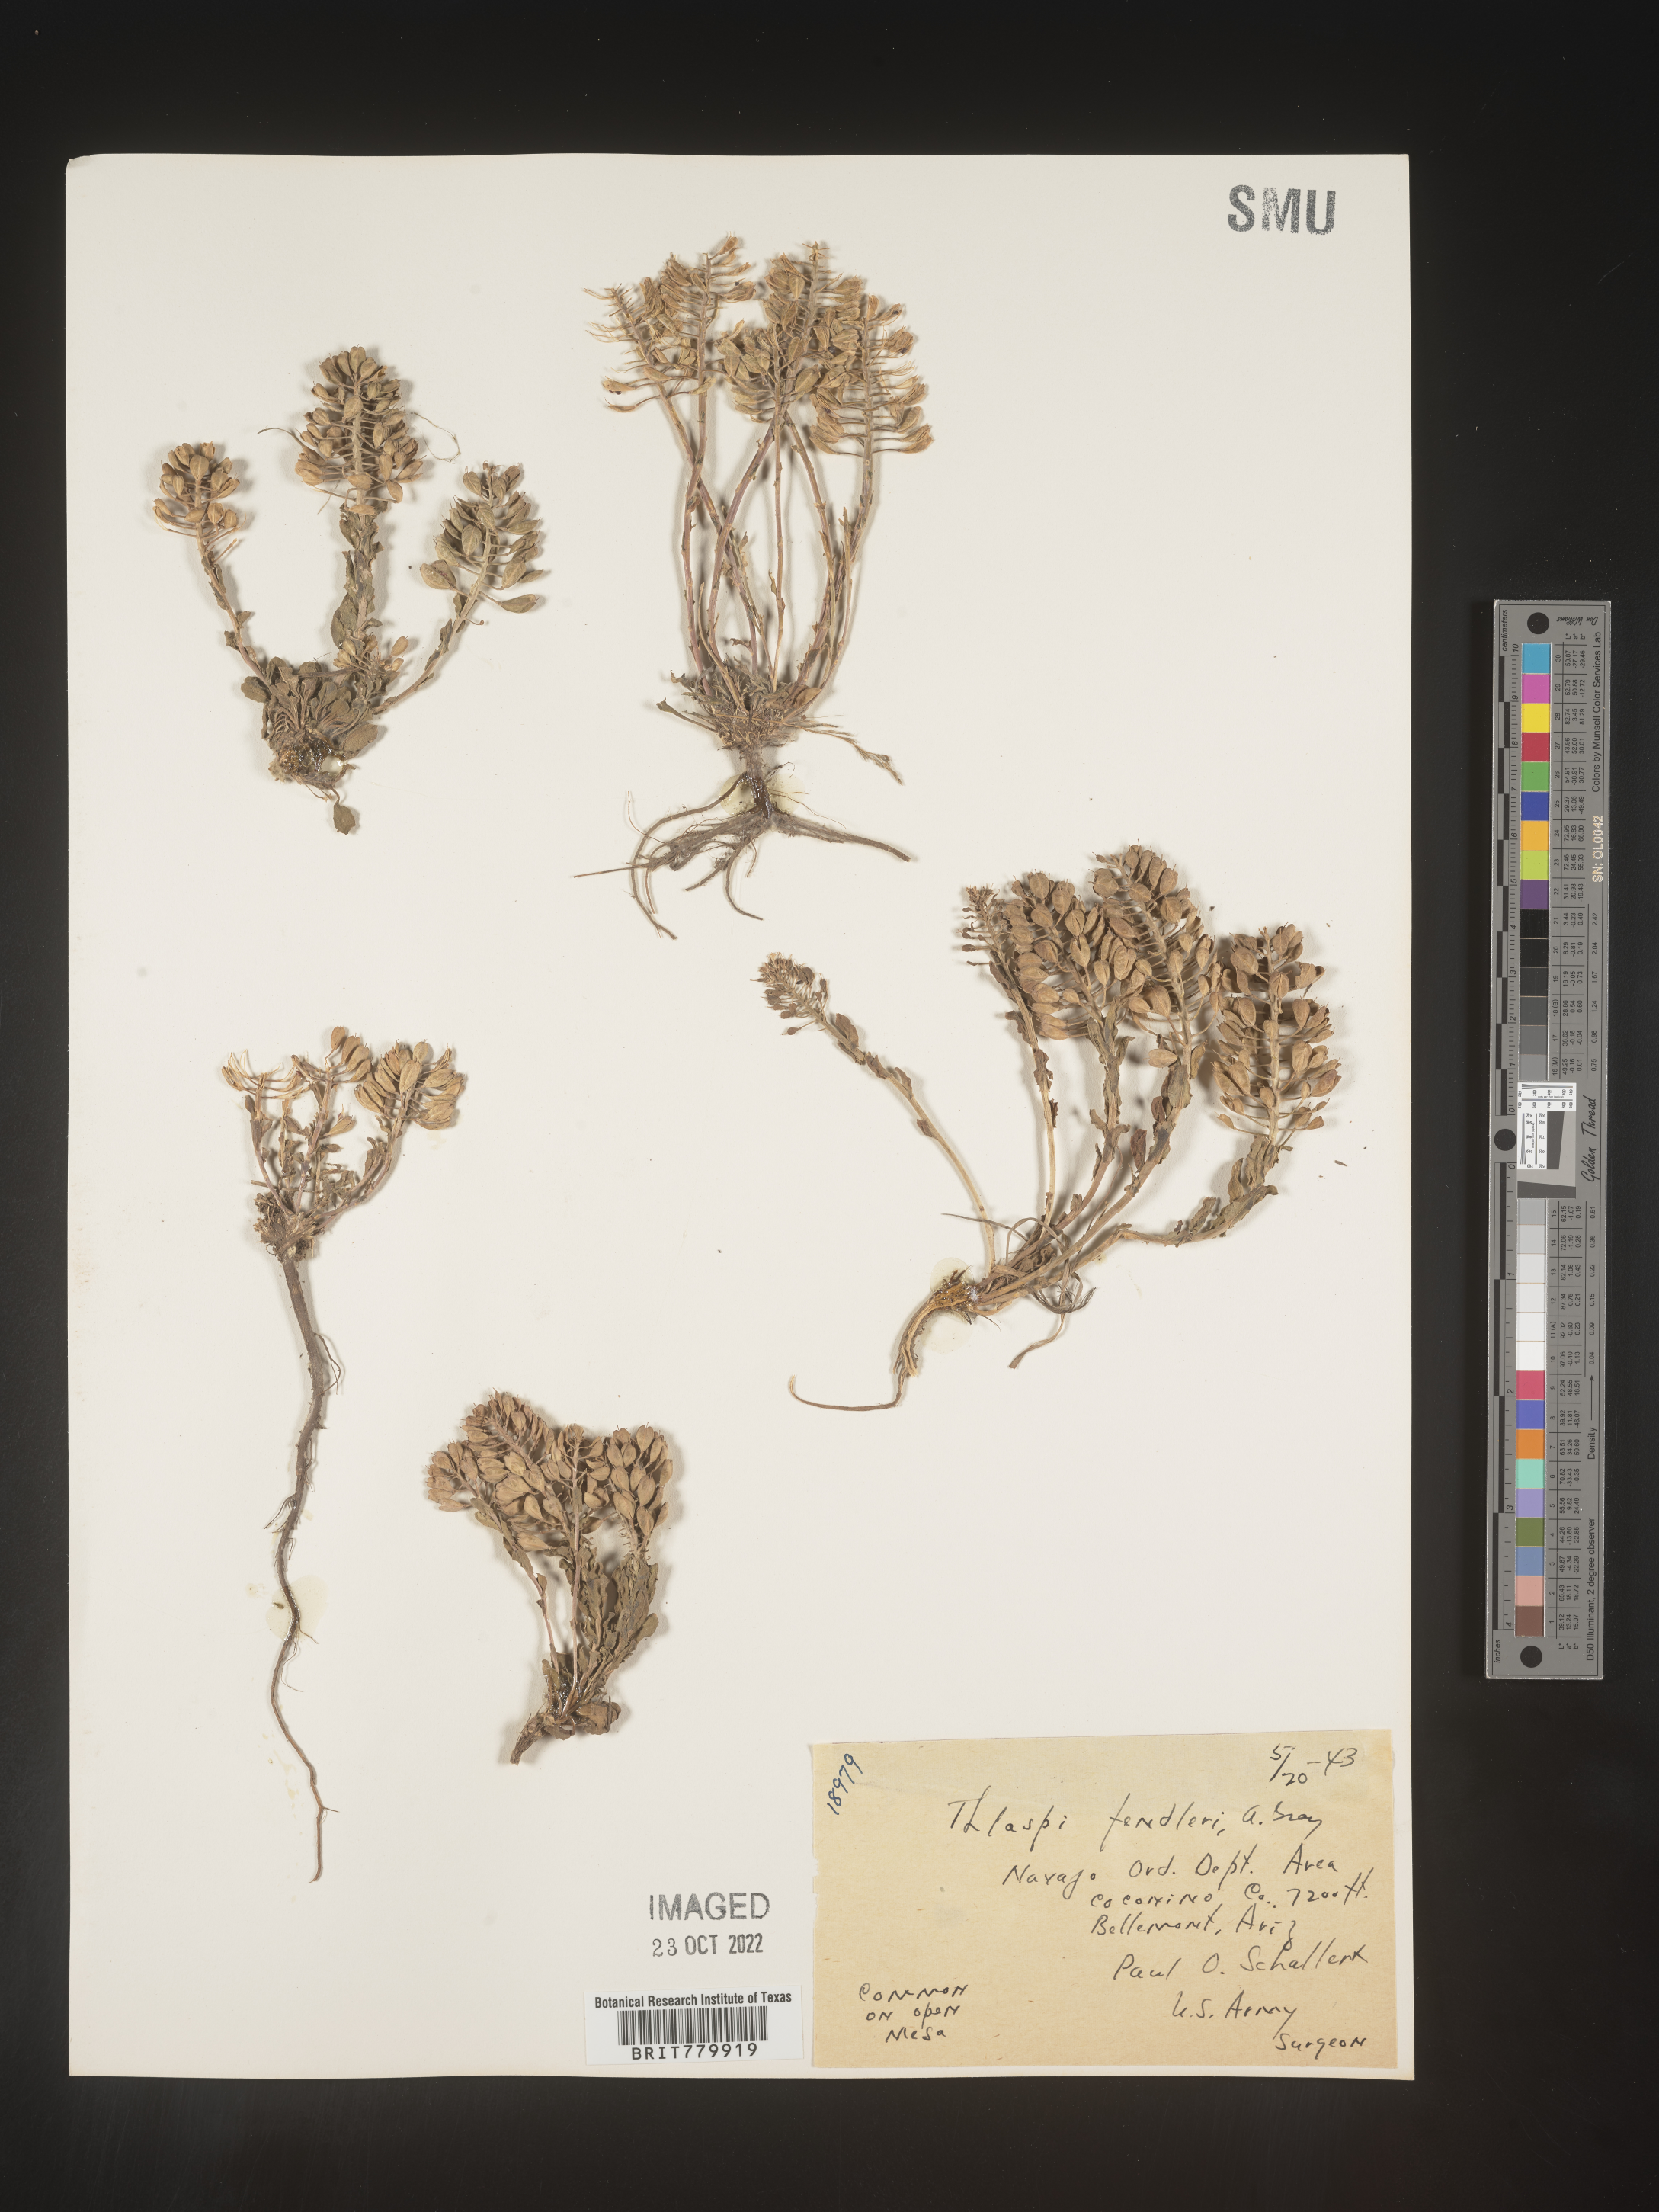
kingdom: Plantae
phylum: Tracheophyta
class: Magnoliopsida
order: Brassicales
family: Brassicaceae
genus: Thlaspi
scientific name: Thlaspi
